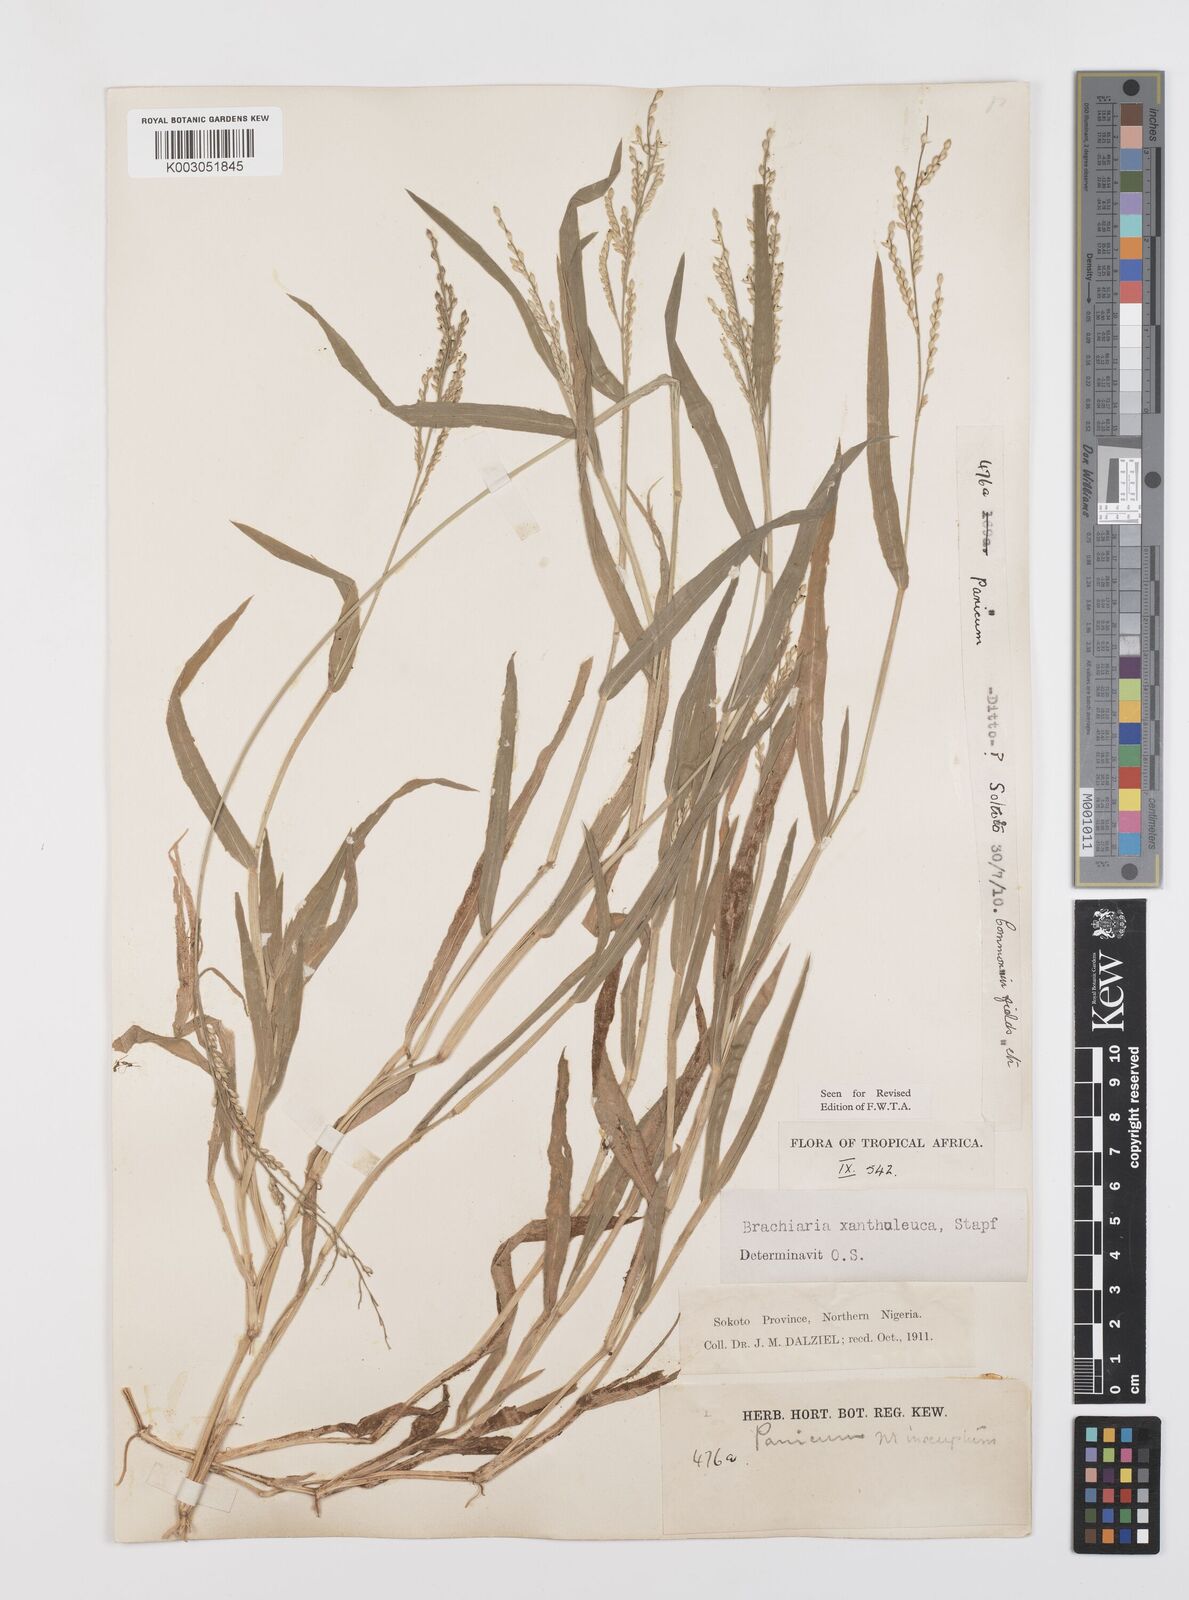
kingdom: Plantae
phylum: Tracheophyta
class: Liliopsida
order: Poales
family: Poaceae
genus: Urochloa
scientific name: Urochloa xantholeuca
